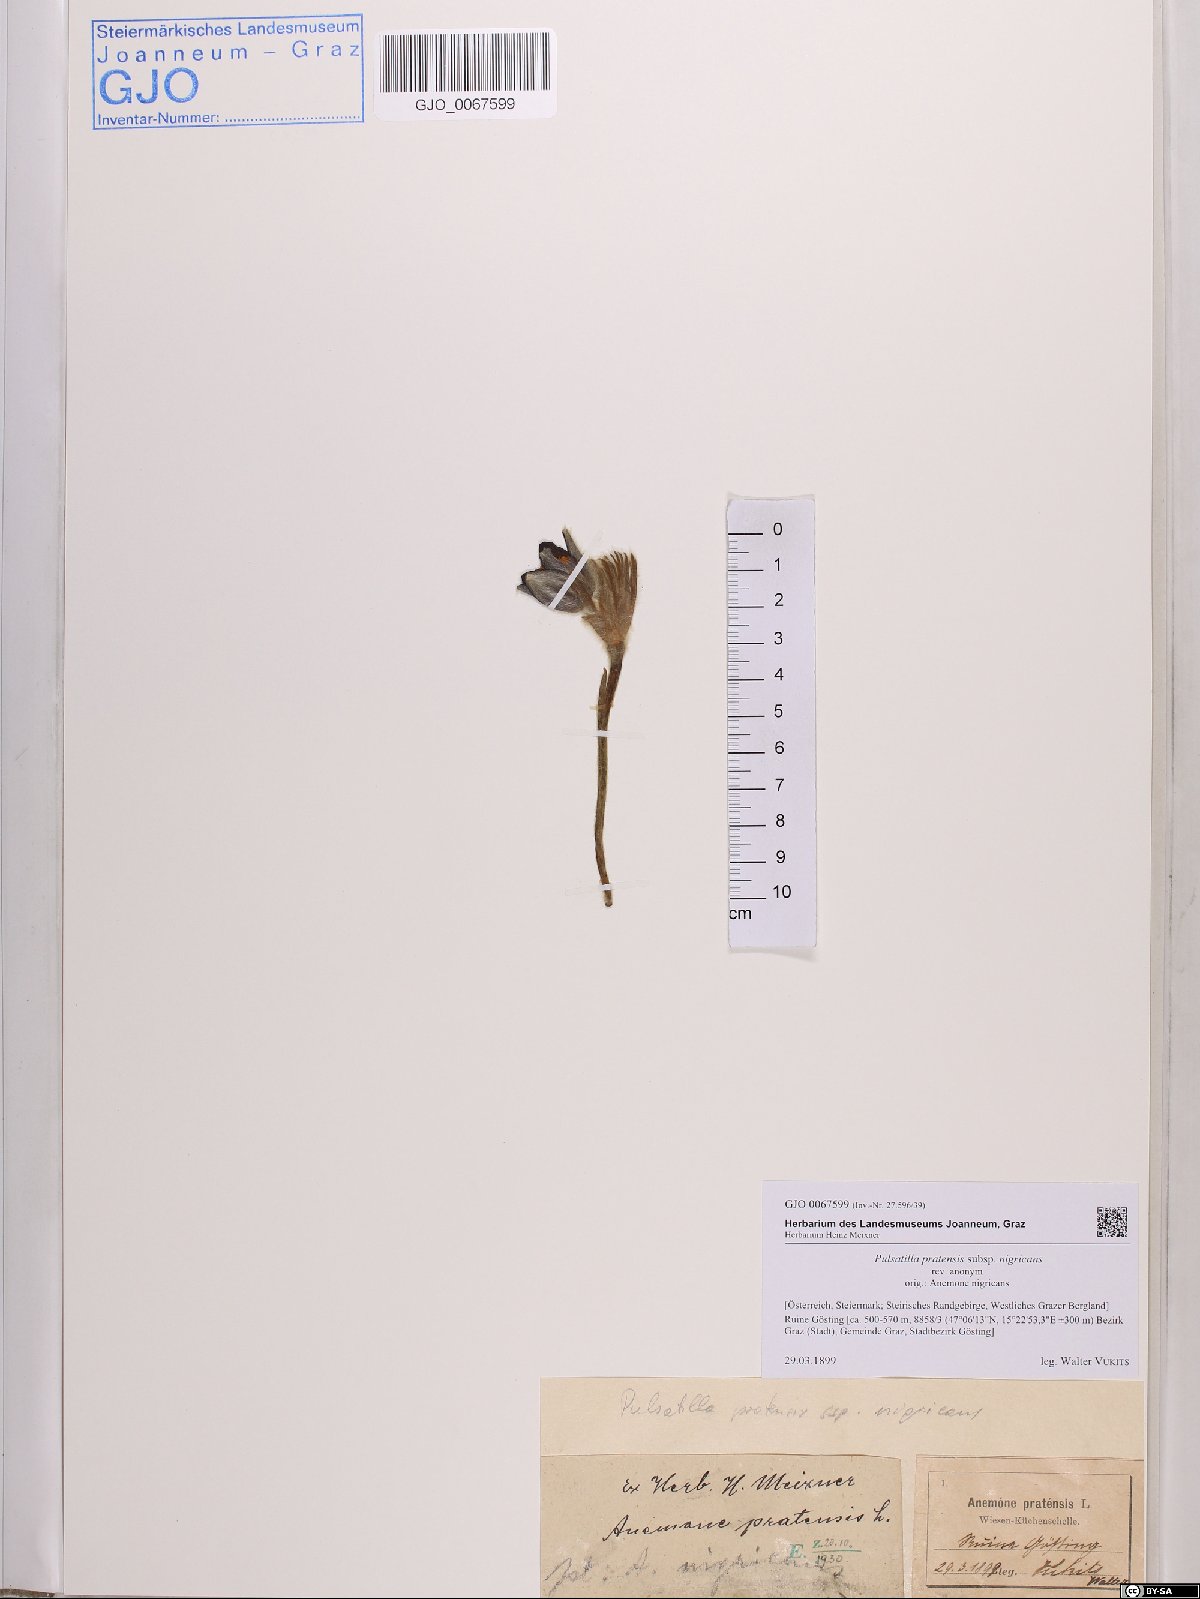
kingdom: Plantae
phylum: Tracheophyta
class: Magnoliopsida
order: Ranunculales
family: Ranunculaceae
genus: Pulsatilla
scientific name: Pulsatilla pratensis
